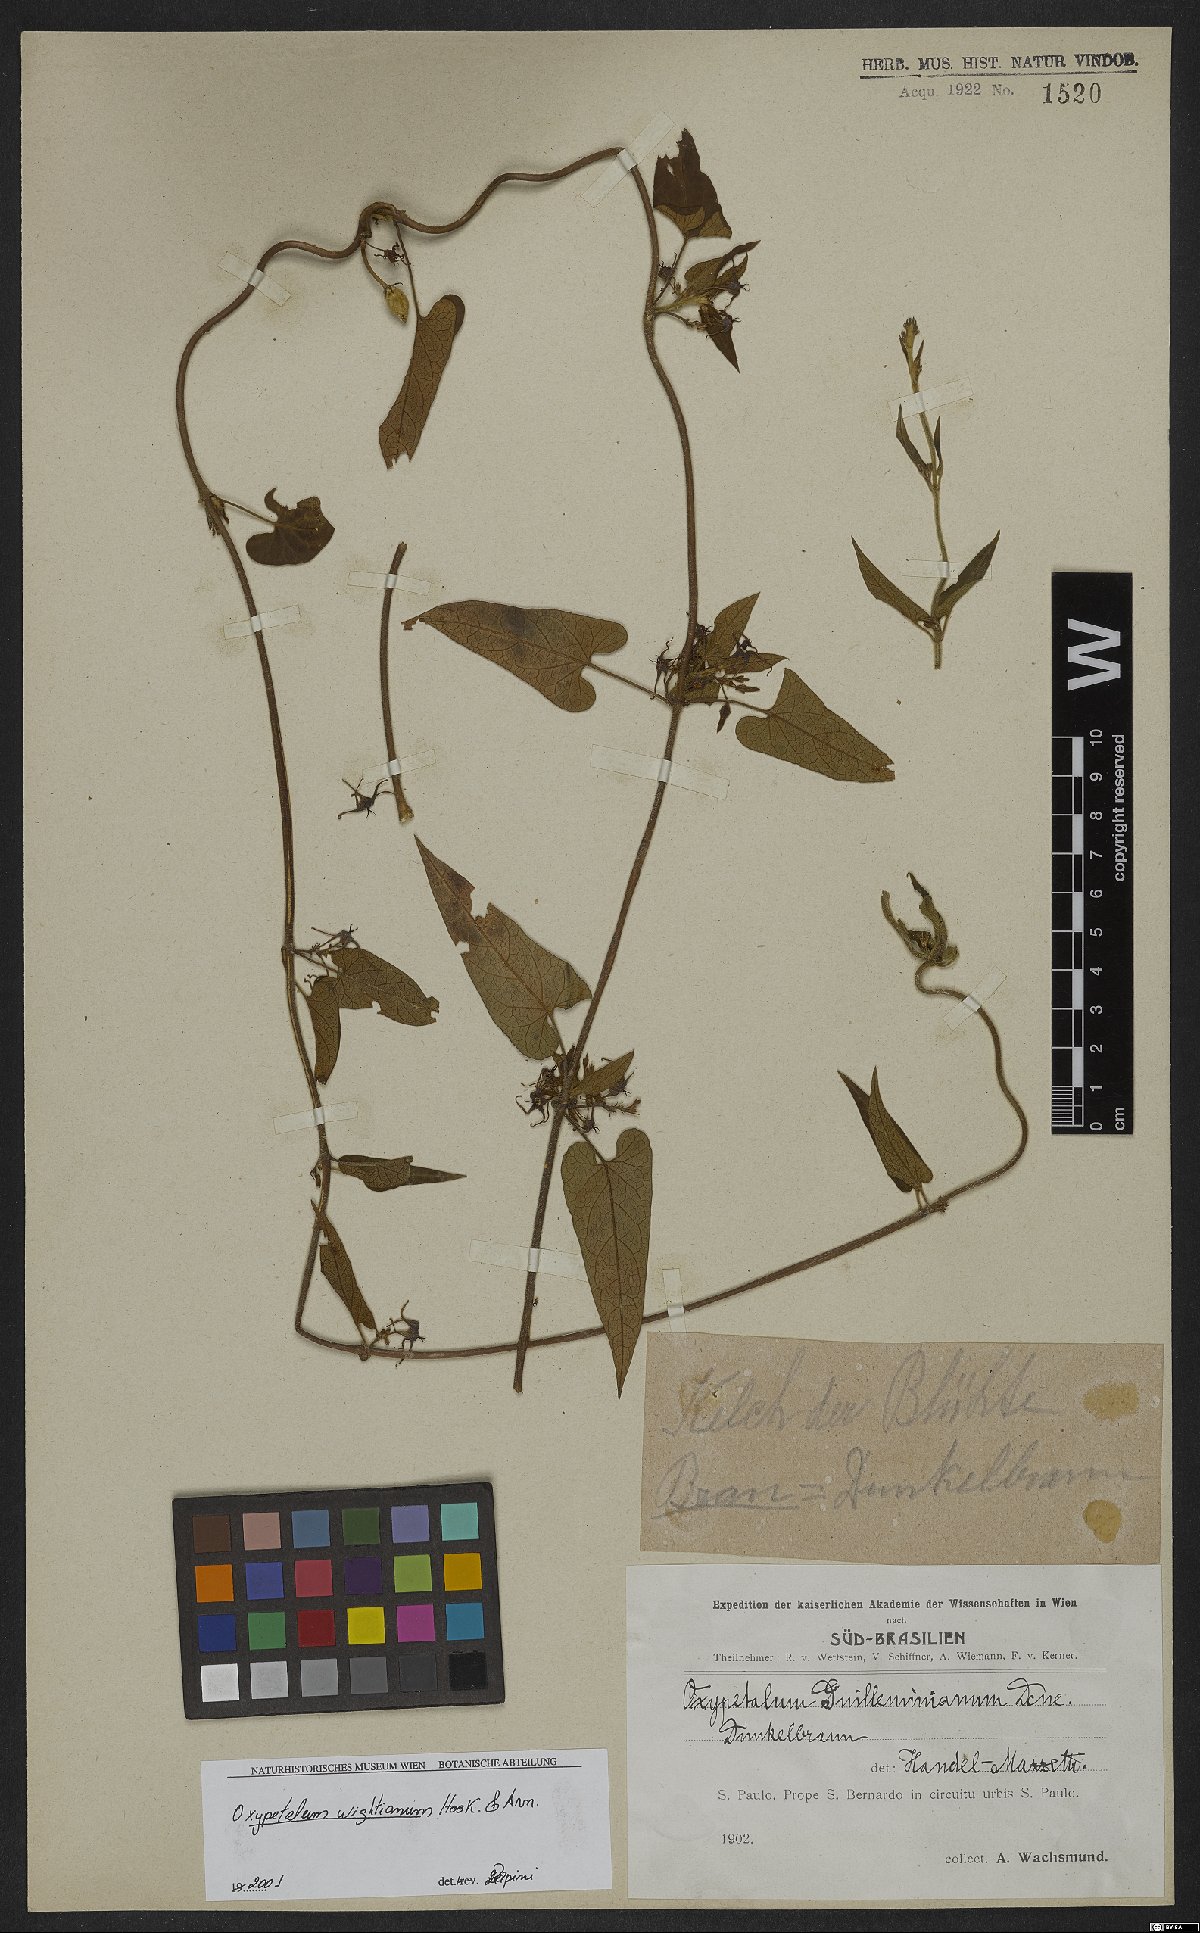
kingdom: Plantae
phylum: Tracheophyta
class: Magnoliopsida
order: Gentianales
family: Apocynaceae
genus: Oxypetalum
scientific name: Oxypetalum wightianum
